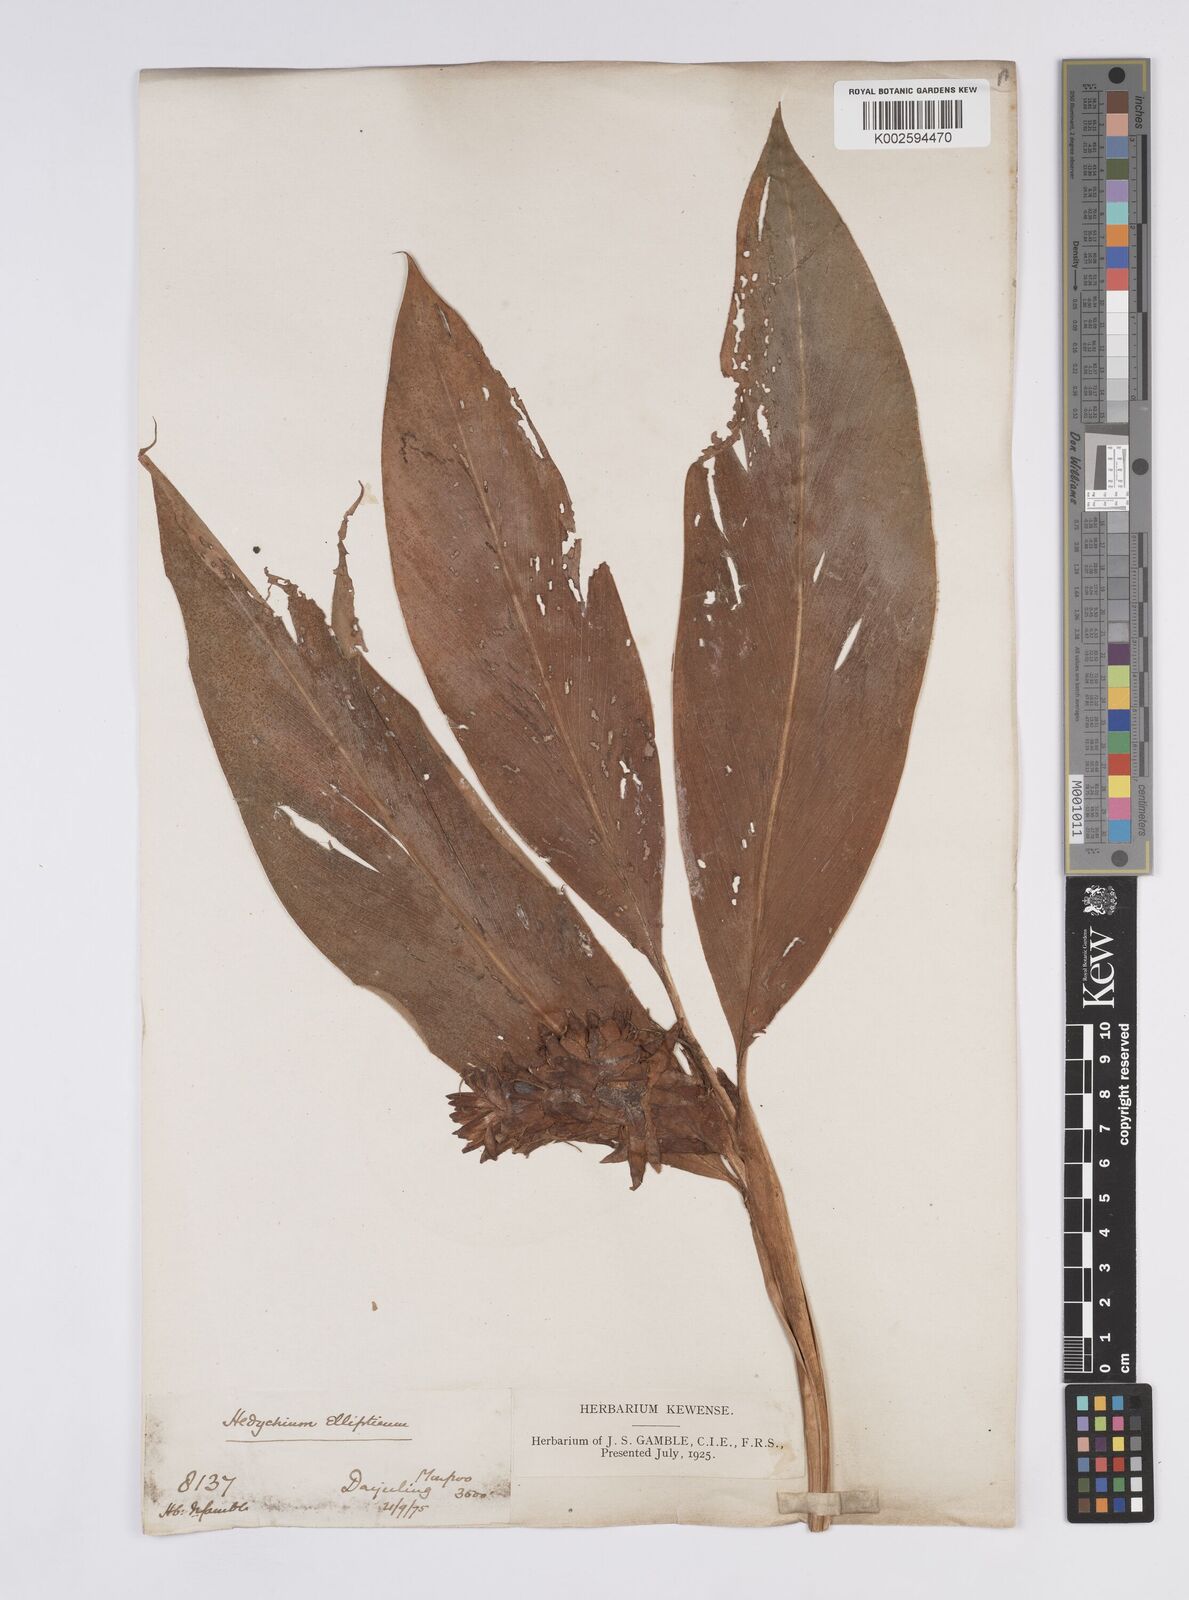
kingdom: Plantae
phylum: Tracheophyta
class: Liliopsida
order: Zingiberales
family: Zingiberaceae
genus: Hedychium
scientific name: Hedychium ellipticum
